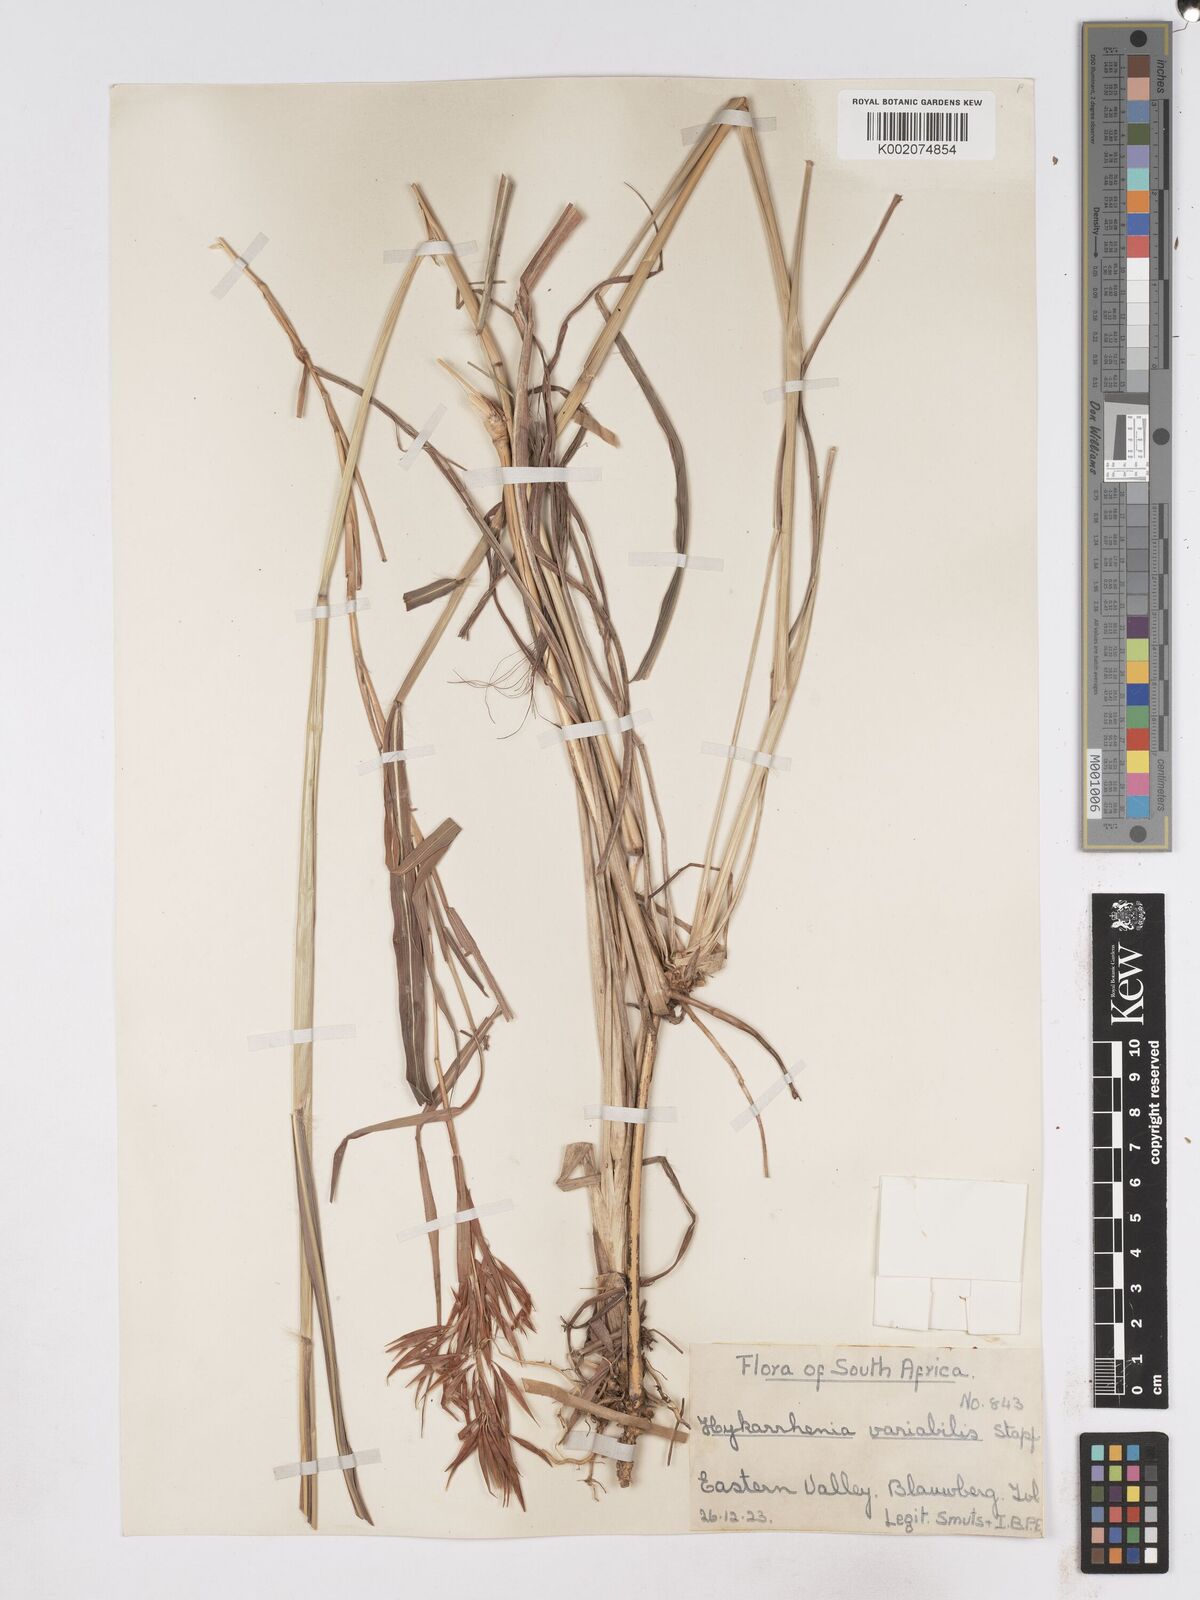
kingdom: Plantae
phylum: Tracheophyta
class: Liliopsida
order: Poales
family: Poaceae
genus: Hyparrhenia
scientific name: Hyparrhenia variabilis
